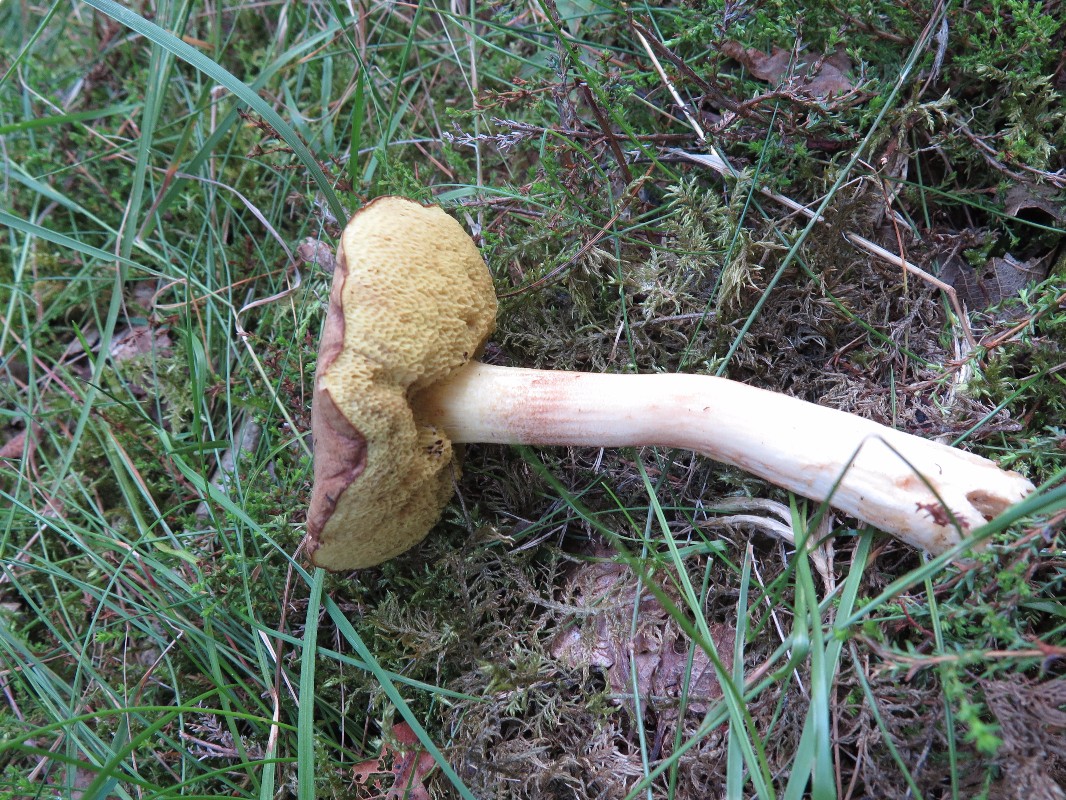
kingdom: Fungi
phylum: Basidiomycota
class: Agaricomycetes
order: Boletales
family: Boletaceae
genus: Xerocomus
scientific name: Xerocomus
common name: filtrørhat
